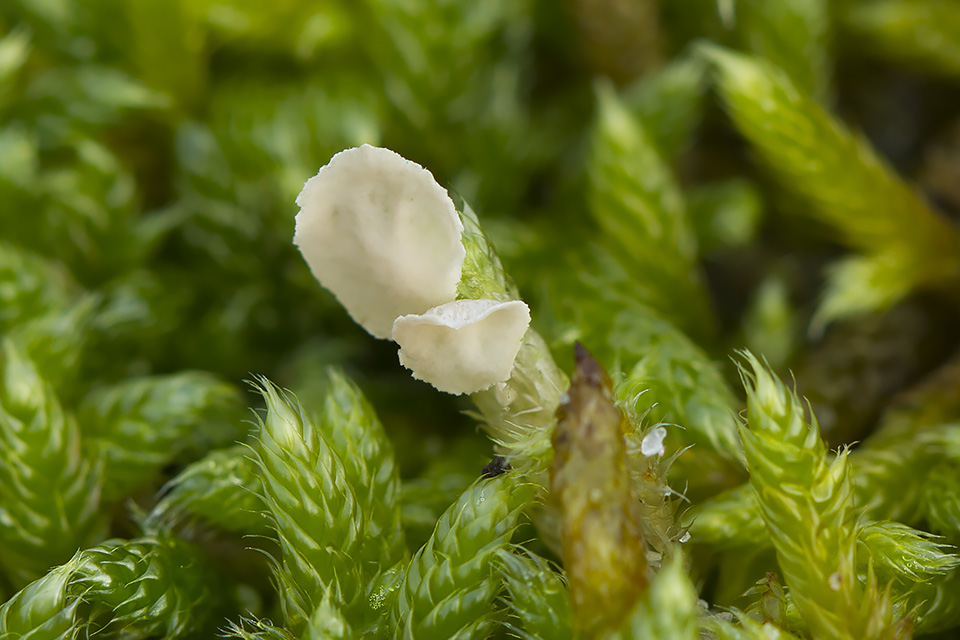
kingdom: Fungi
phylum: Basidiomycota
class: Agaricomycetes
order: Agaricales
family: Hygrophoraceae
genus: Arrhenia
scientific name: Arrhenia retiruga
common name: lille fontænehat
